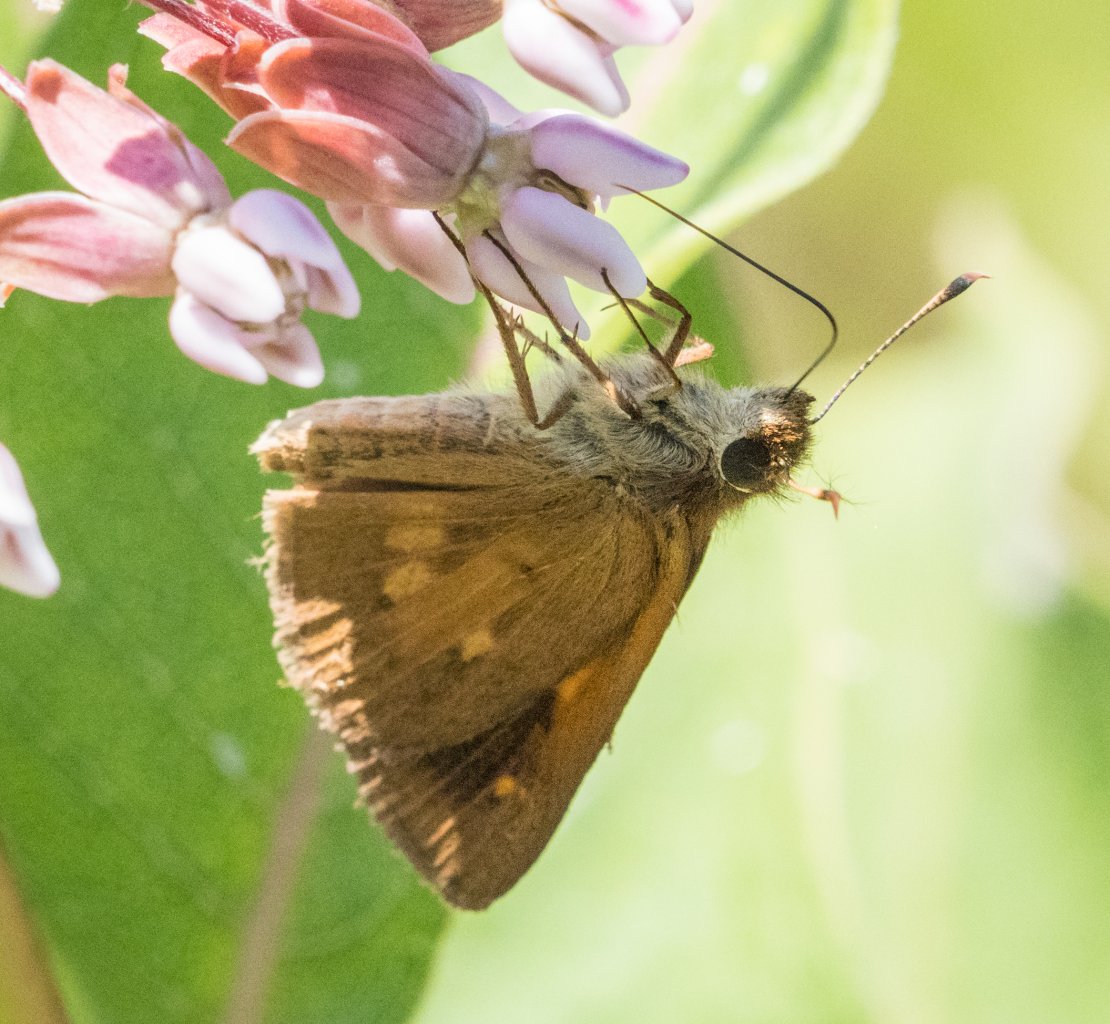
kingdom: Animalia
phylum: Arthropoda
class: Insecta
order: Lepidoptera
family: Hesperiidae
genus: Poanes
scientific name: Poanes viator
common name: Broad-winged Skipper
